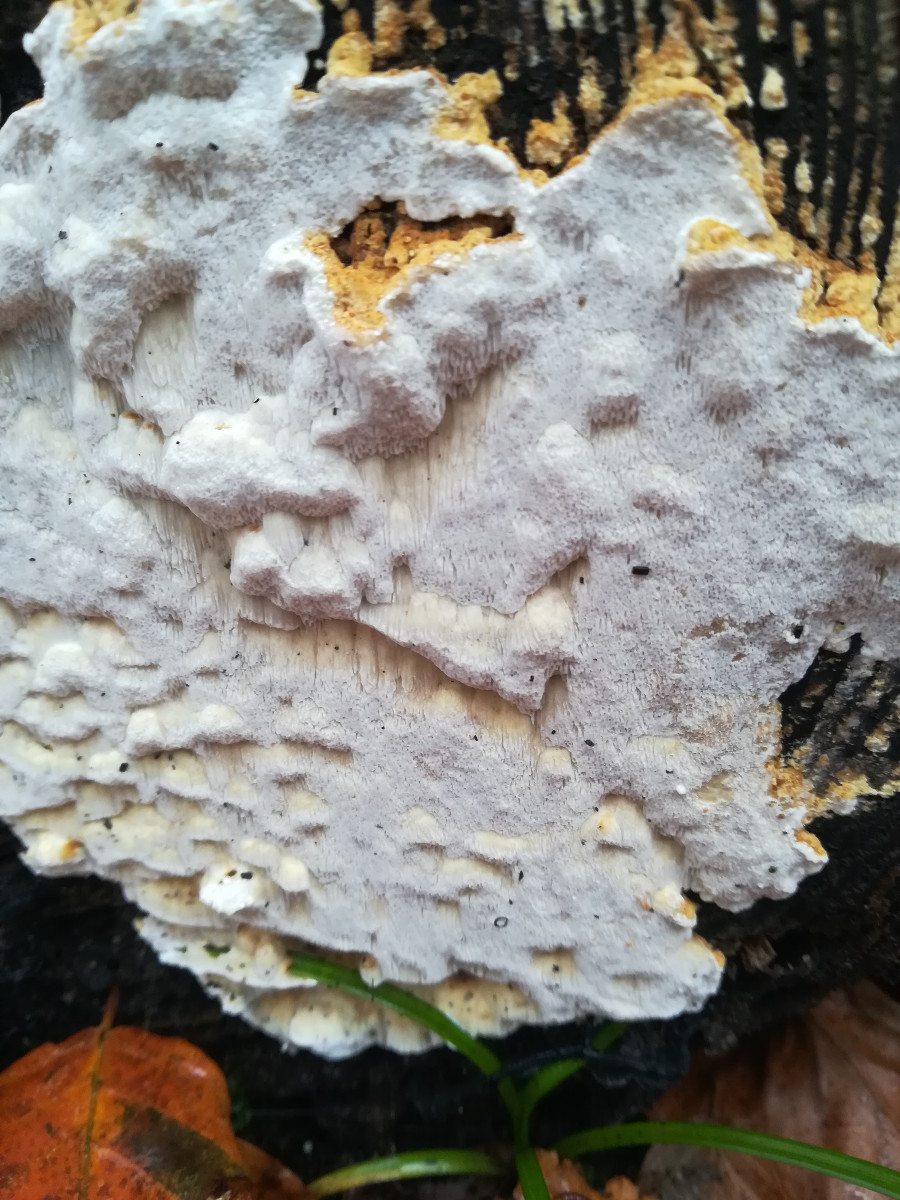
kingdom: Fungi
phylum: Basidiomycota
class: Agaricomycetes
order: Polyporales
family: Fomitopsidaceae
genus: Neoantrodia
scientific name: Neoantrodia serialis
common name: række-sejporesvamp
